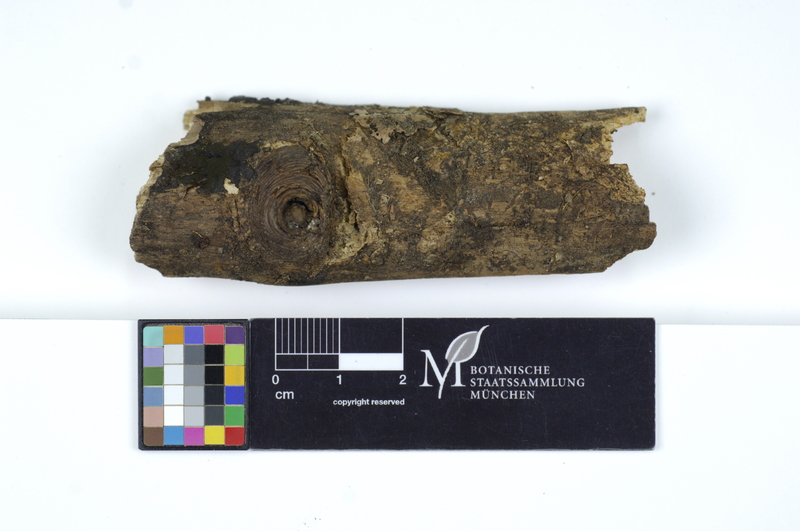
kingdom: Plantae
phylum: Tracheophyta
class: Magnoliopsida
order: Fagales
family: Fagaceae
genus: Fagus
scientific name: Fagus sylvatica
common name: Beech
